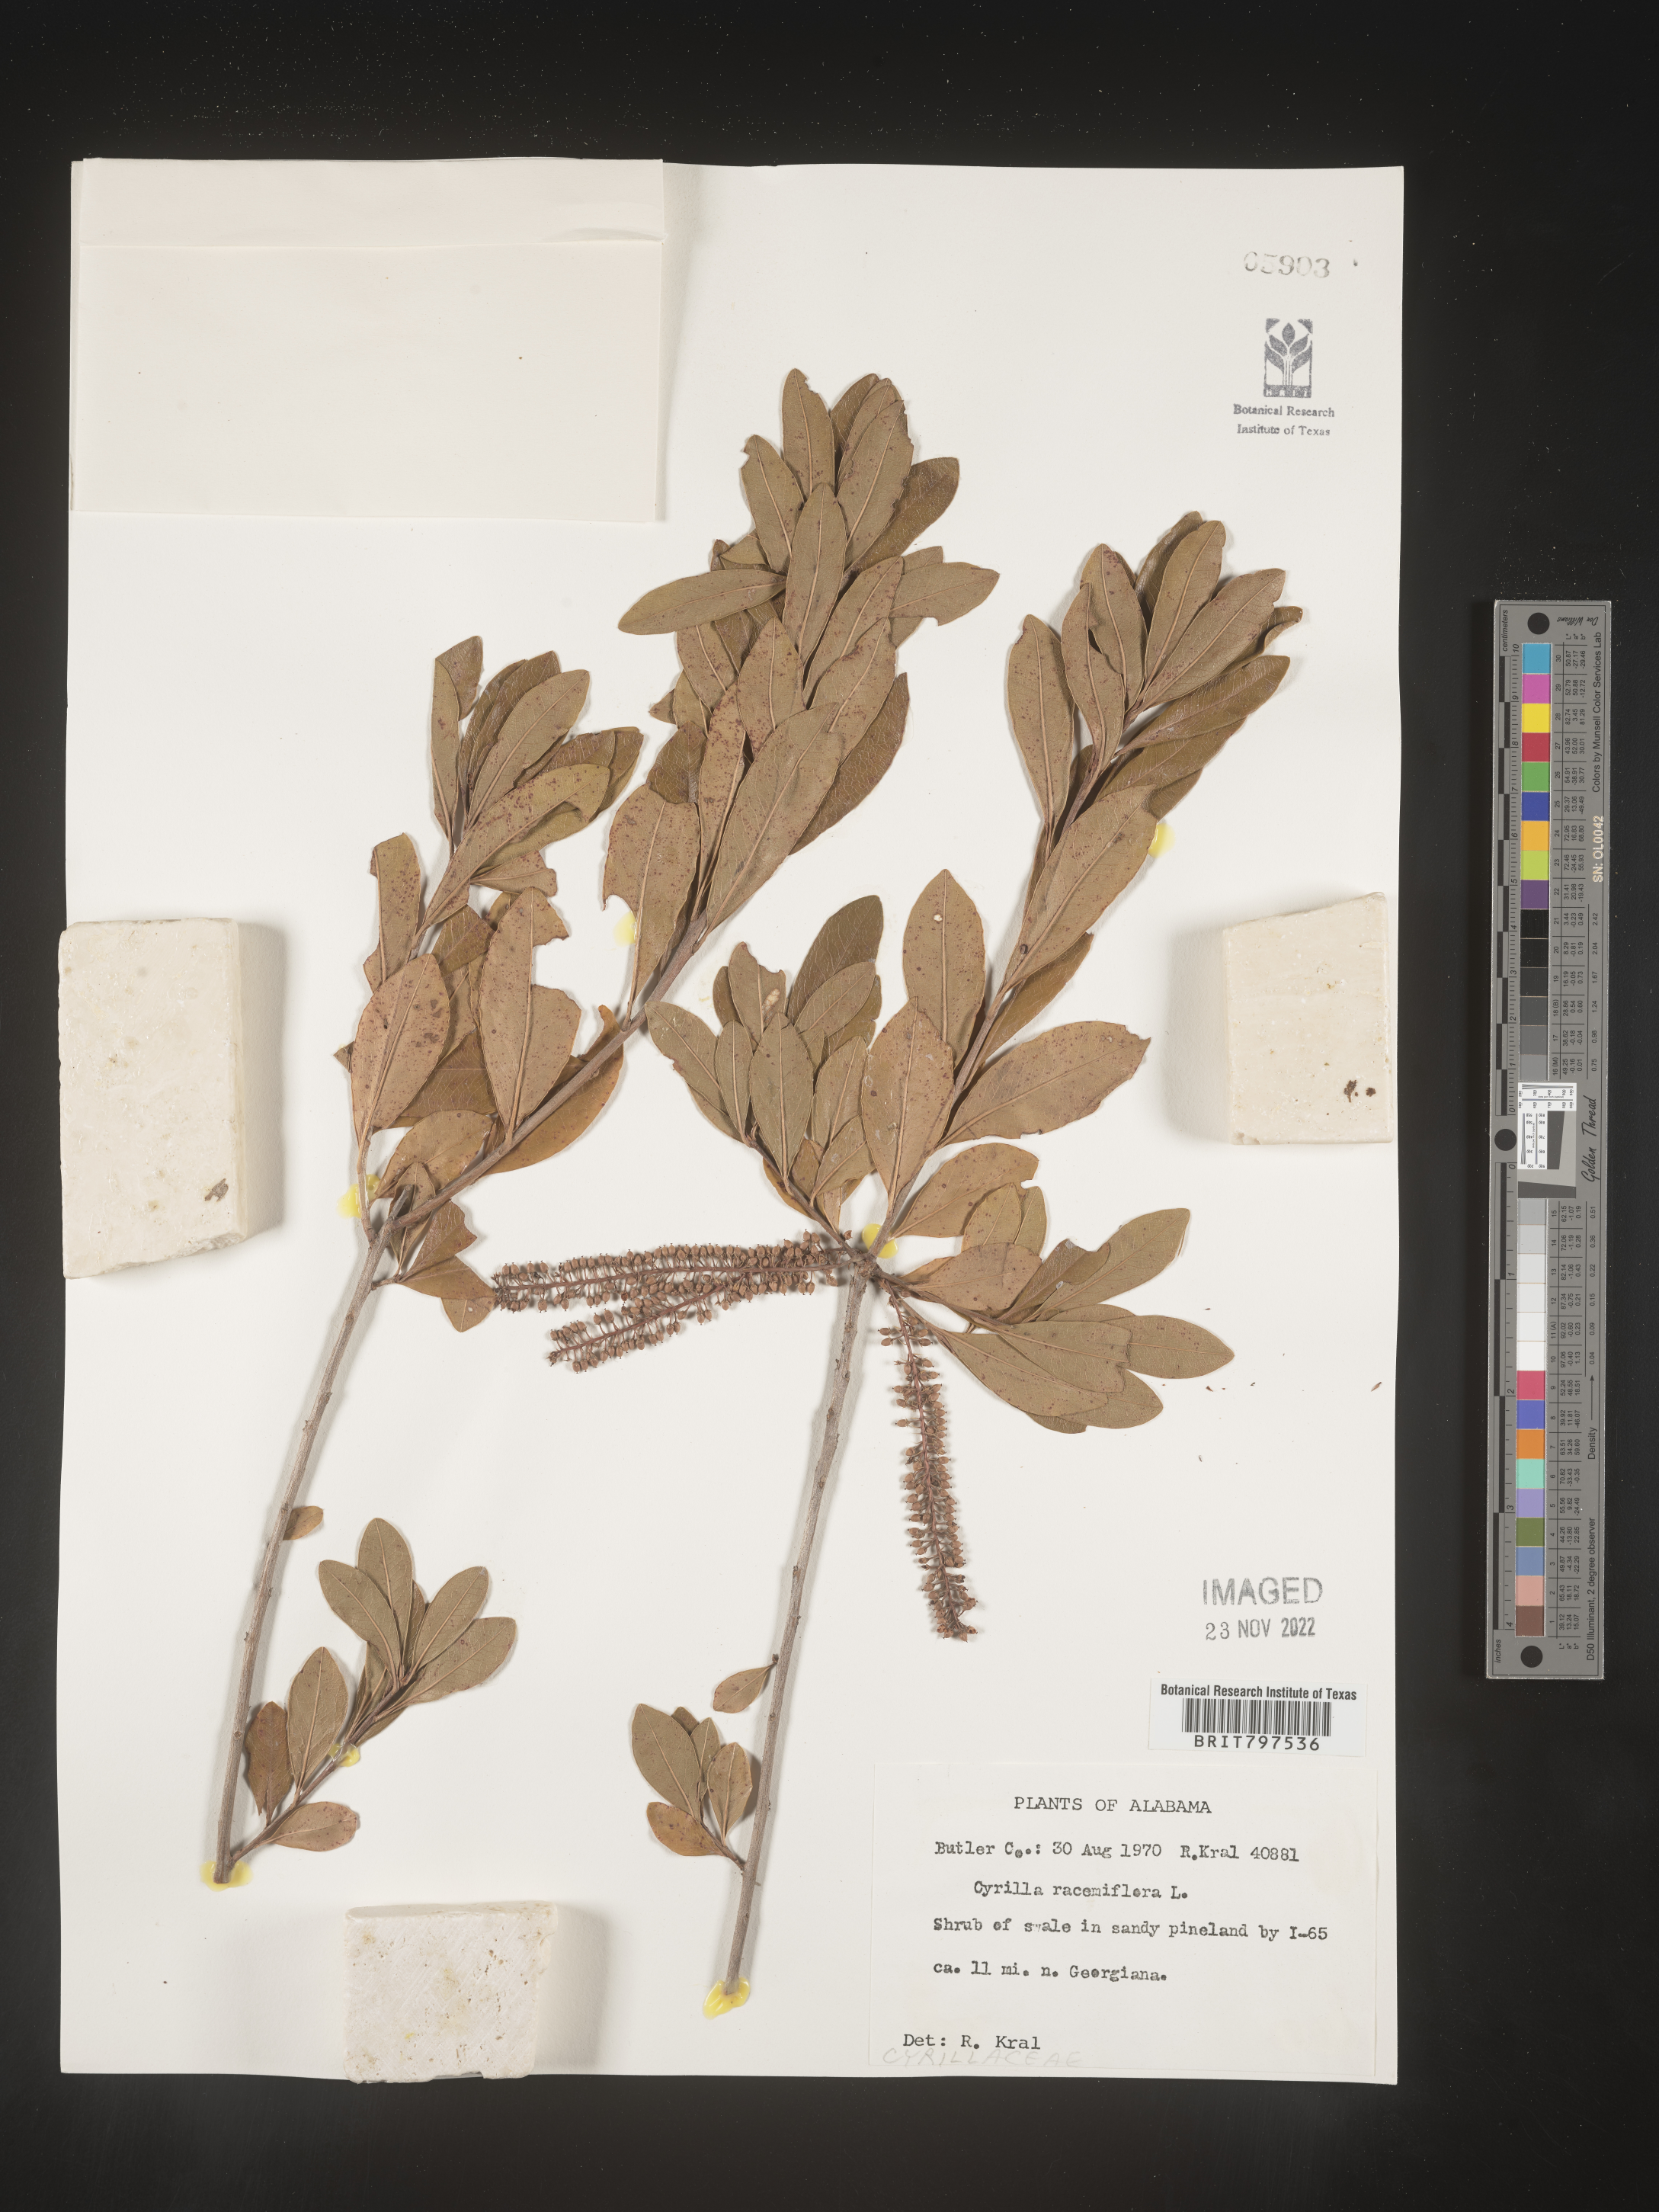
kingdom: Plantae
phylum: Tracheophyta
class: Magnoliopsida
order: Ericales
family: Cyrillaceae
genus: Cyrilla
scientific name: Cyrilla racemiflora
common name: Black titi
